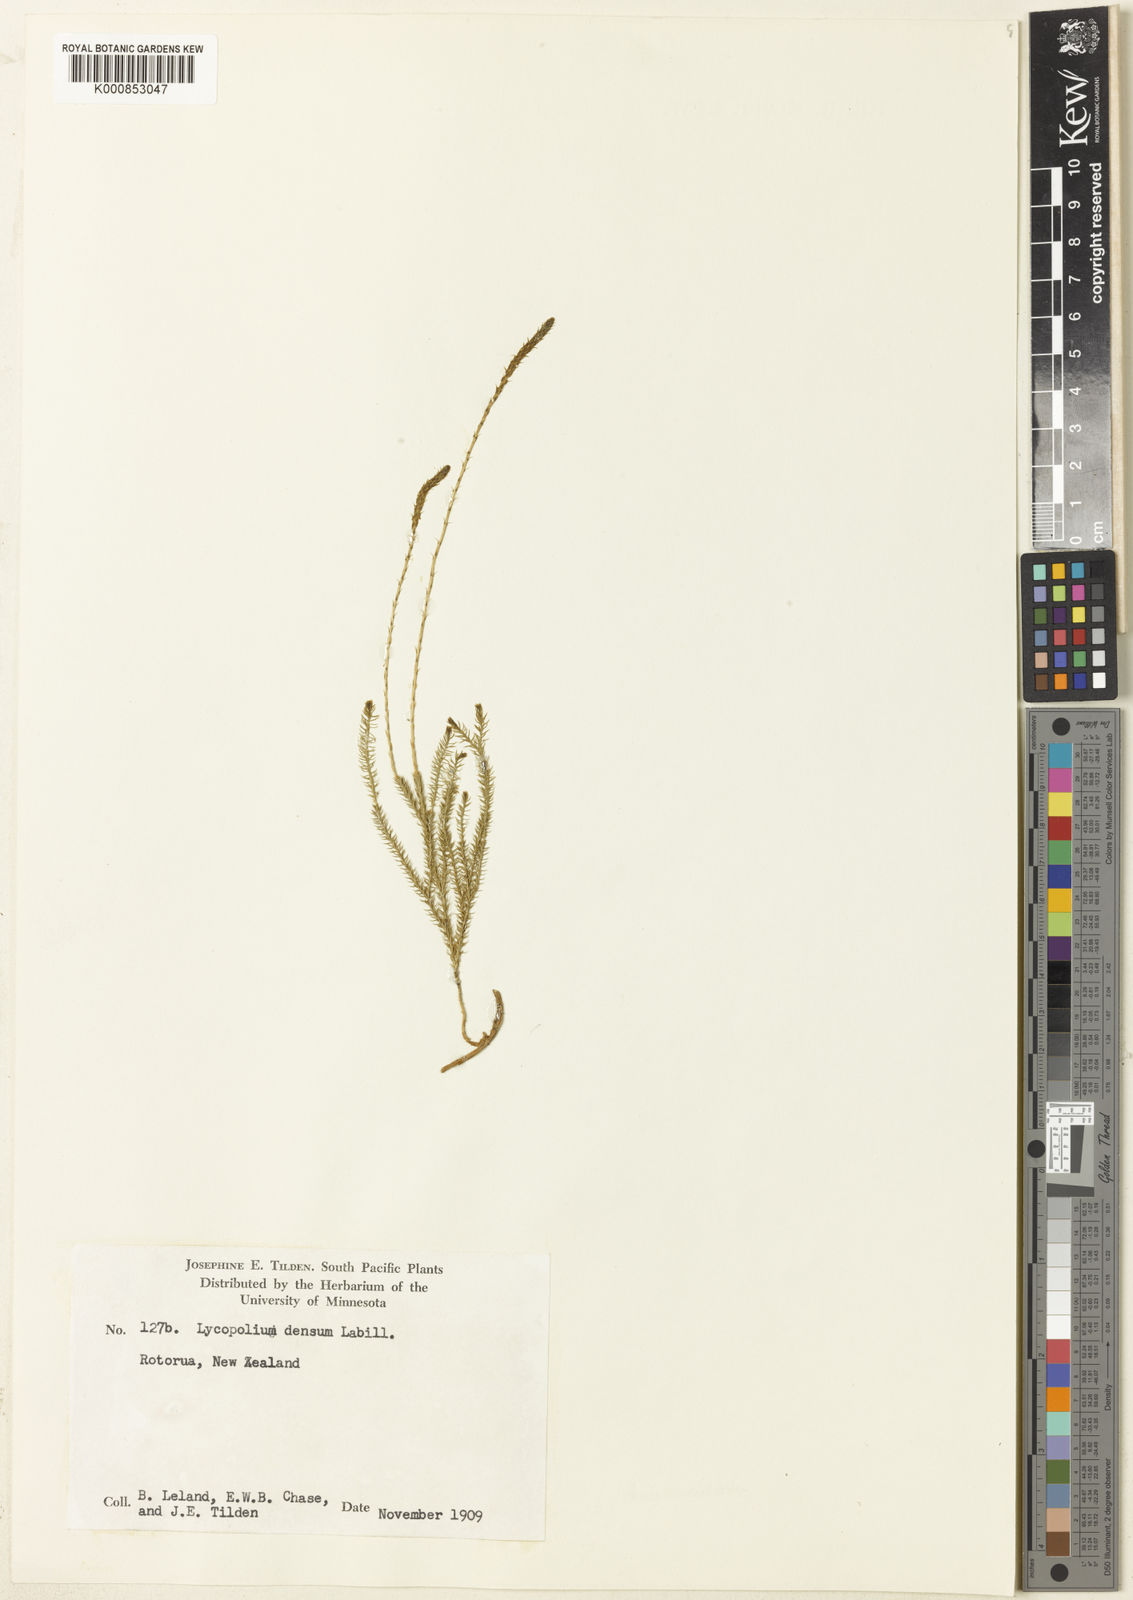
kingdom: Plantae
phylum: Tracheophyta
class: Lycopodiopsida
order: Lycopodiales
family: Lycopodiaceae
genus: Lycopodium
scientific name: Lycopodium
